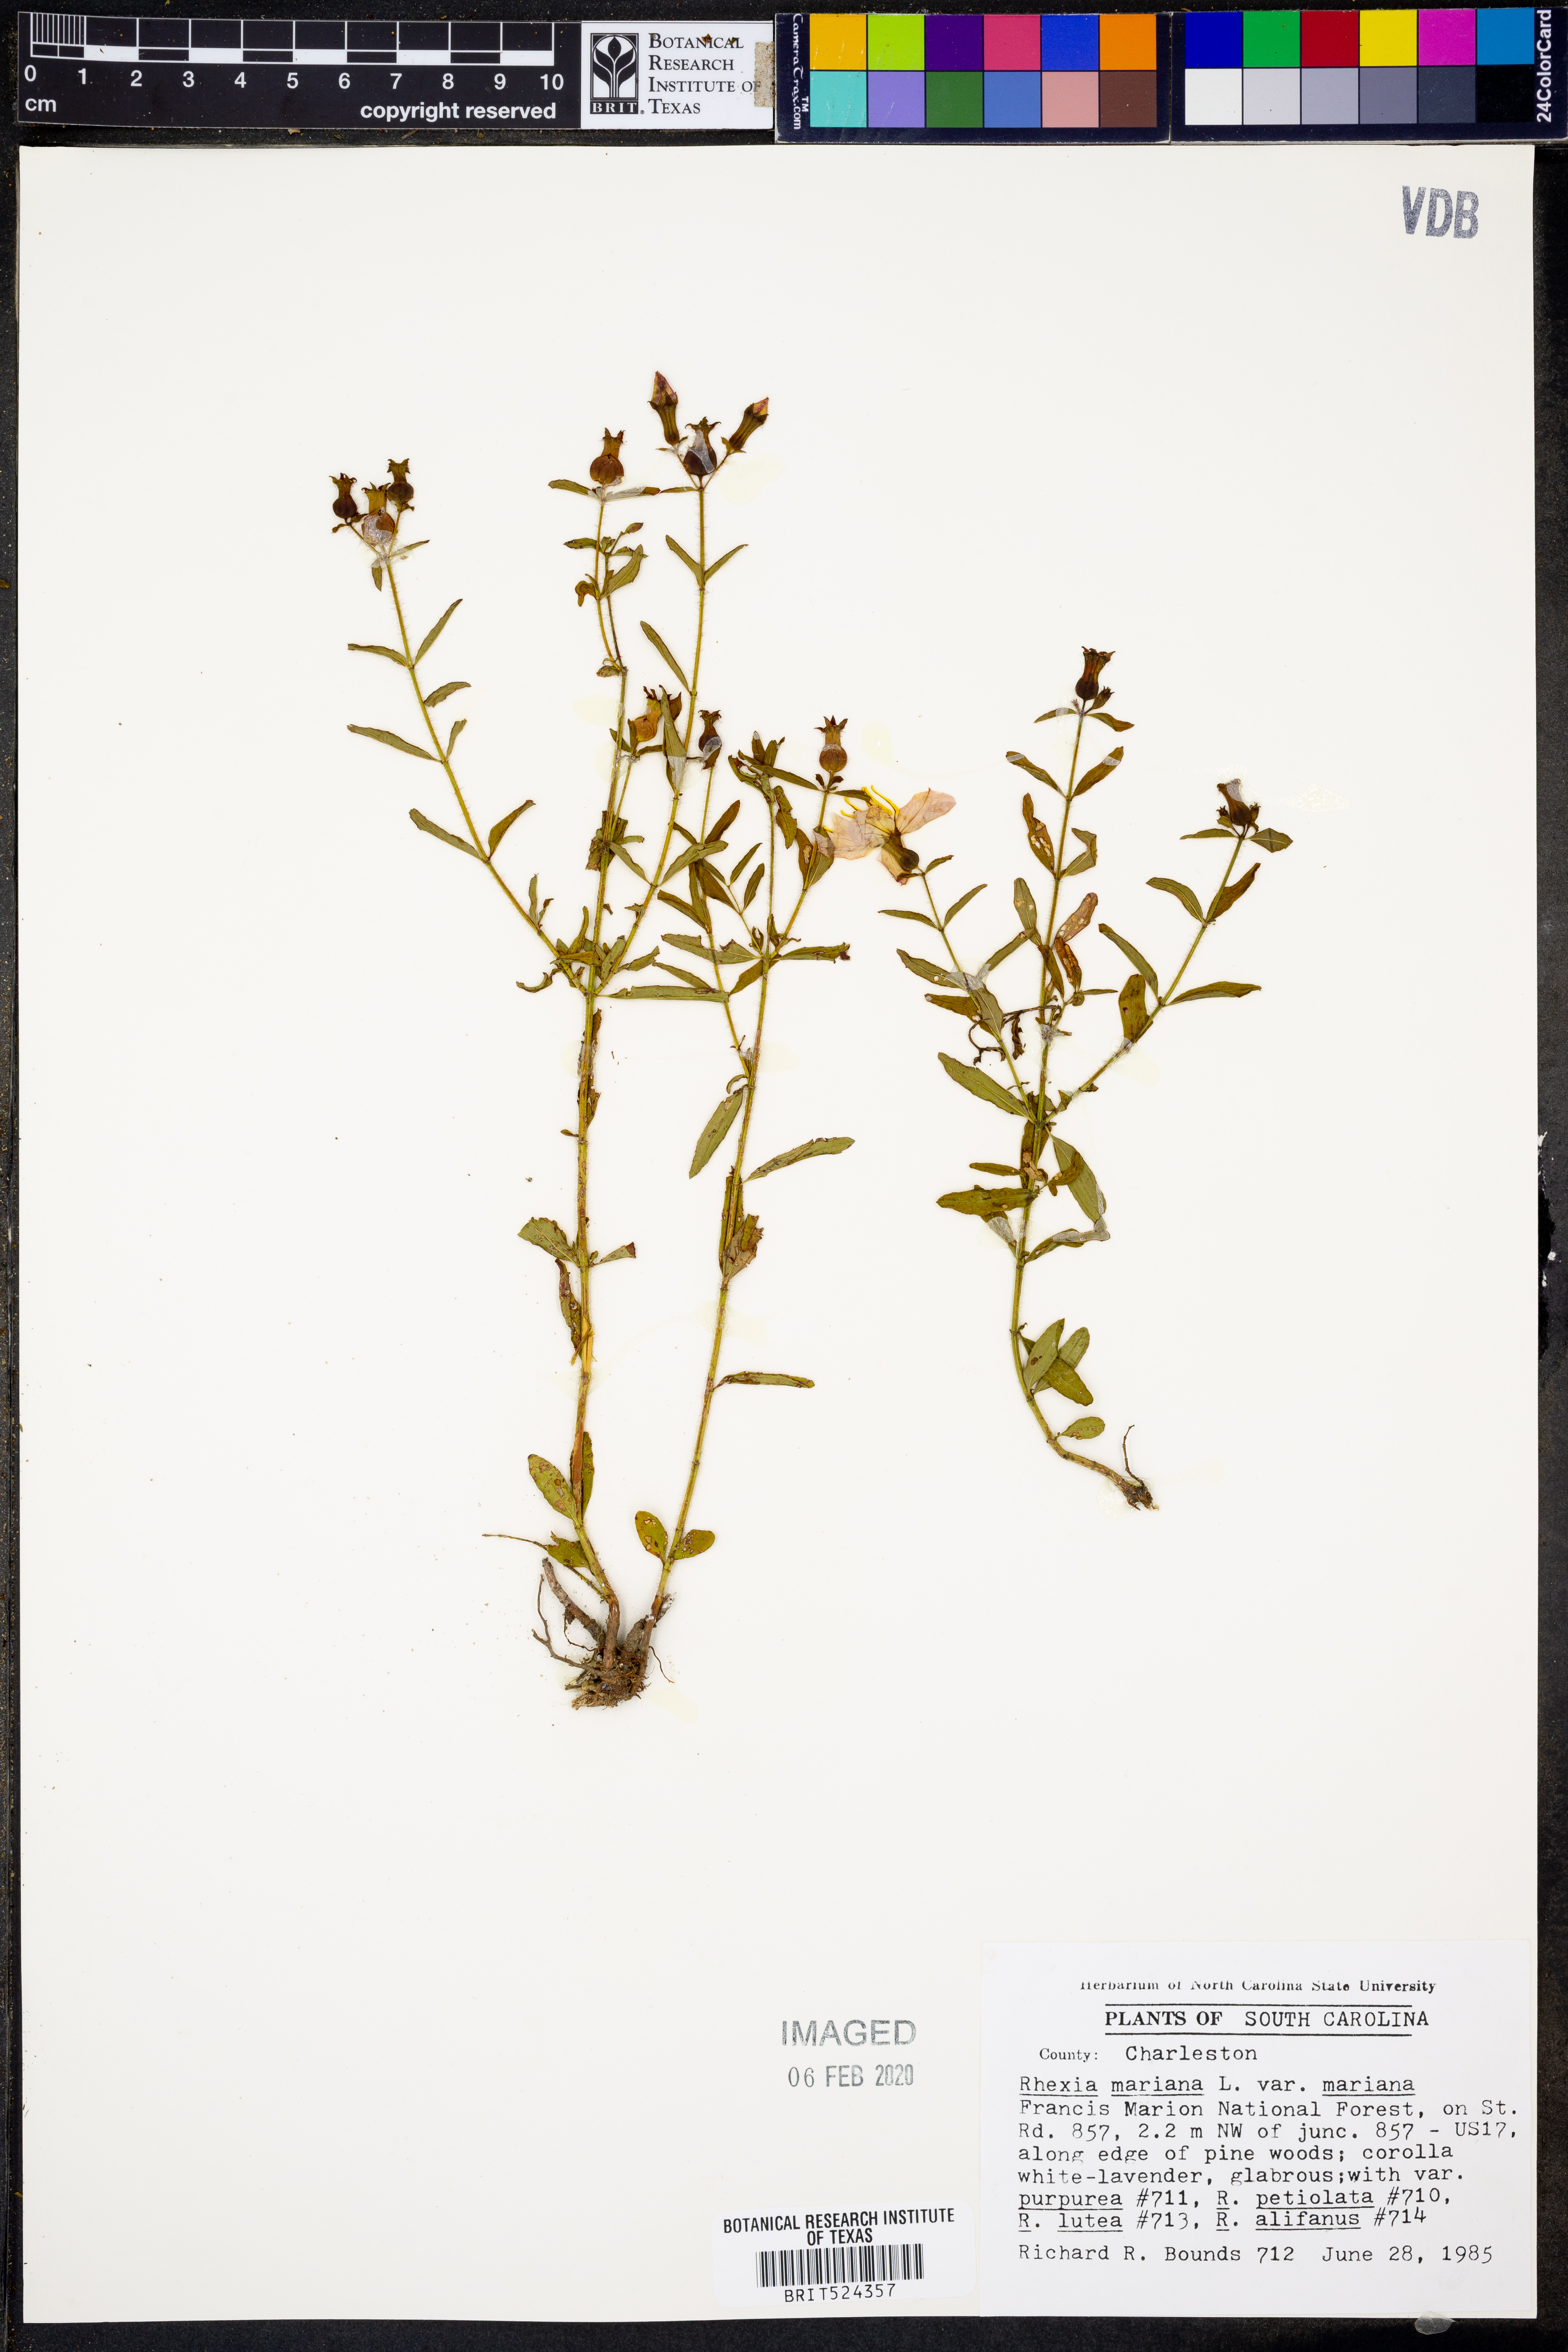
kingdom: Plantae
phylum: Tracheophyta
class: Magnoliopsida
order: Myrtales
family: Melastomataceae
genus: Rhexia
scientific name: Rhexia mariana
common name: Dull meadow-pitcher
